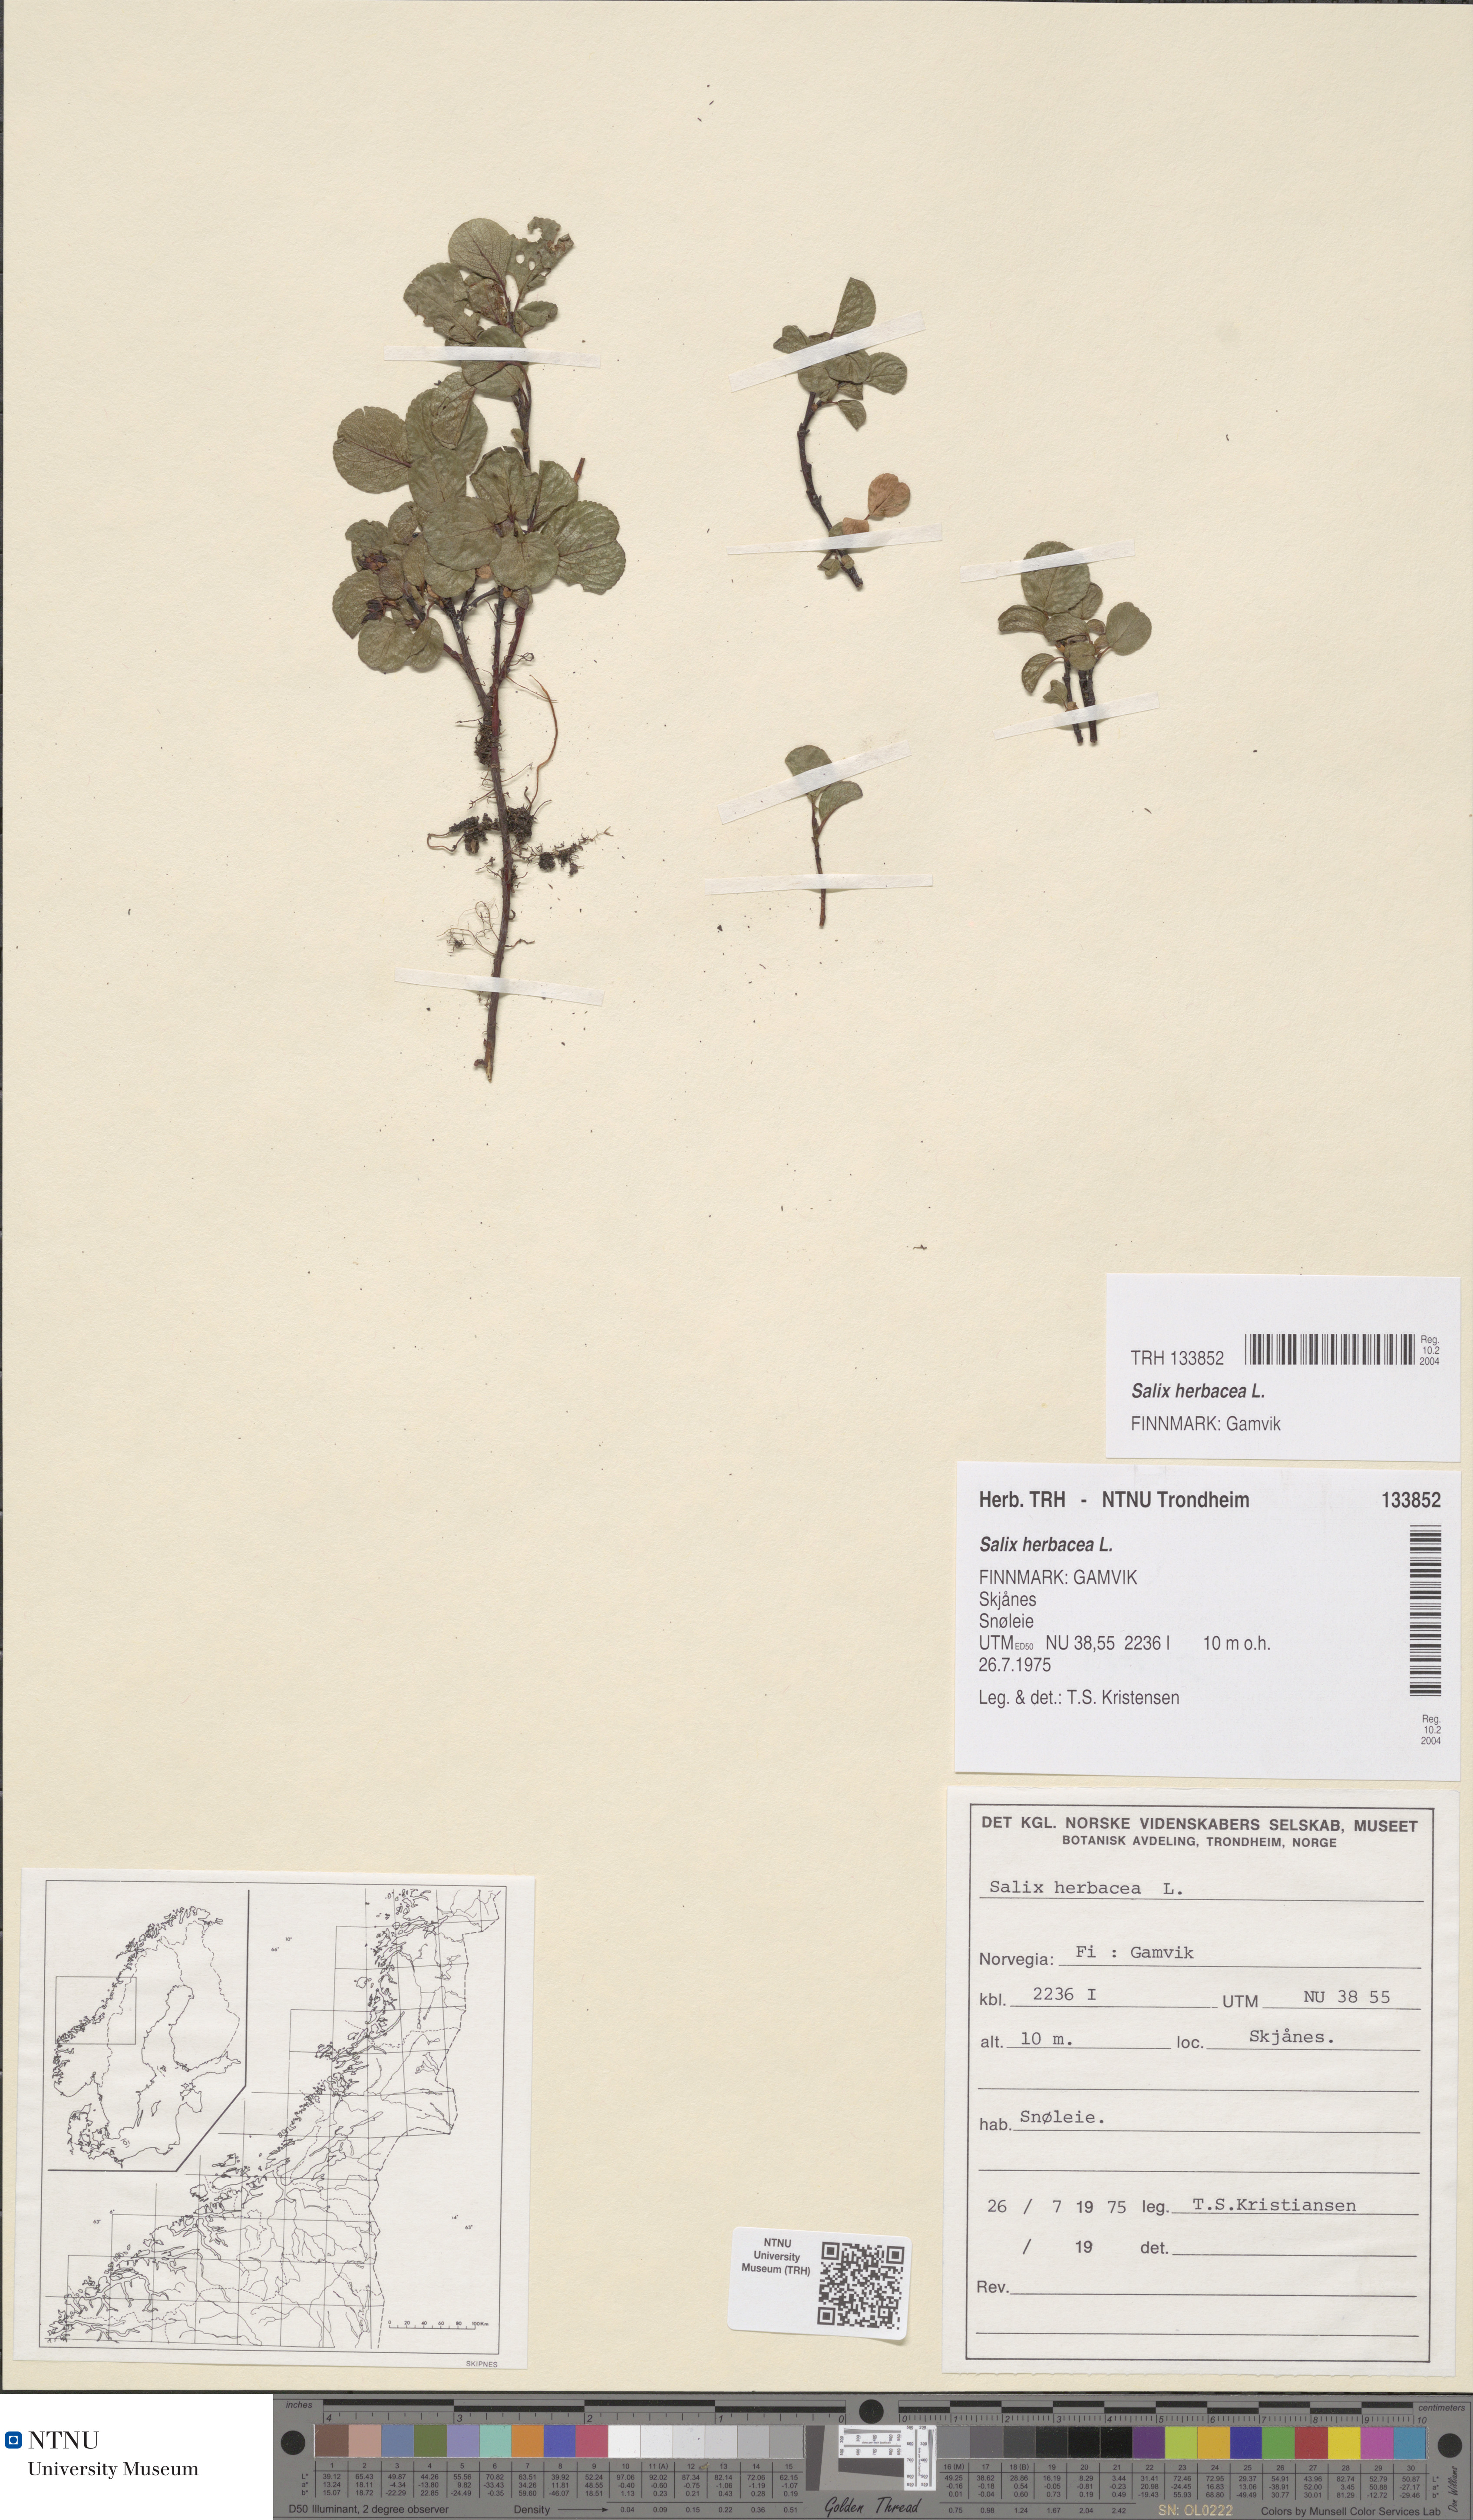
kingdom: Plantae
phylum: Tracheophyta
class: Magnoliopsida
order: Malpighiales
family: Salicaceae
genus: Salix
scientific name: Salix herbacea
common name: Dwarf willow
